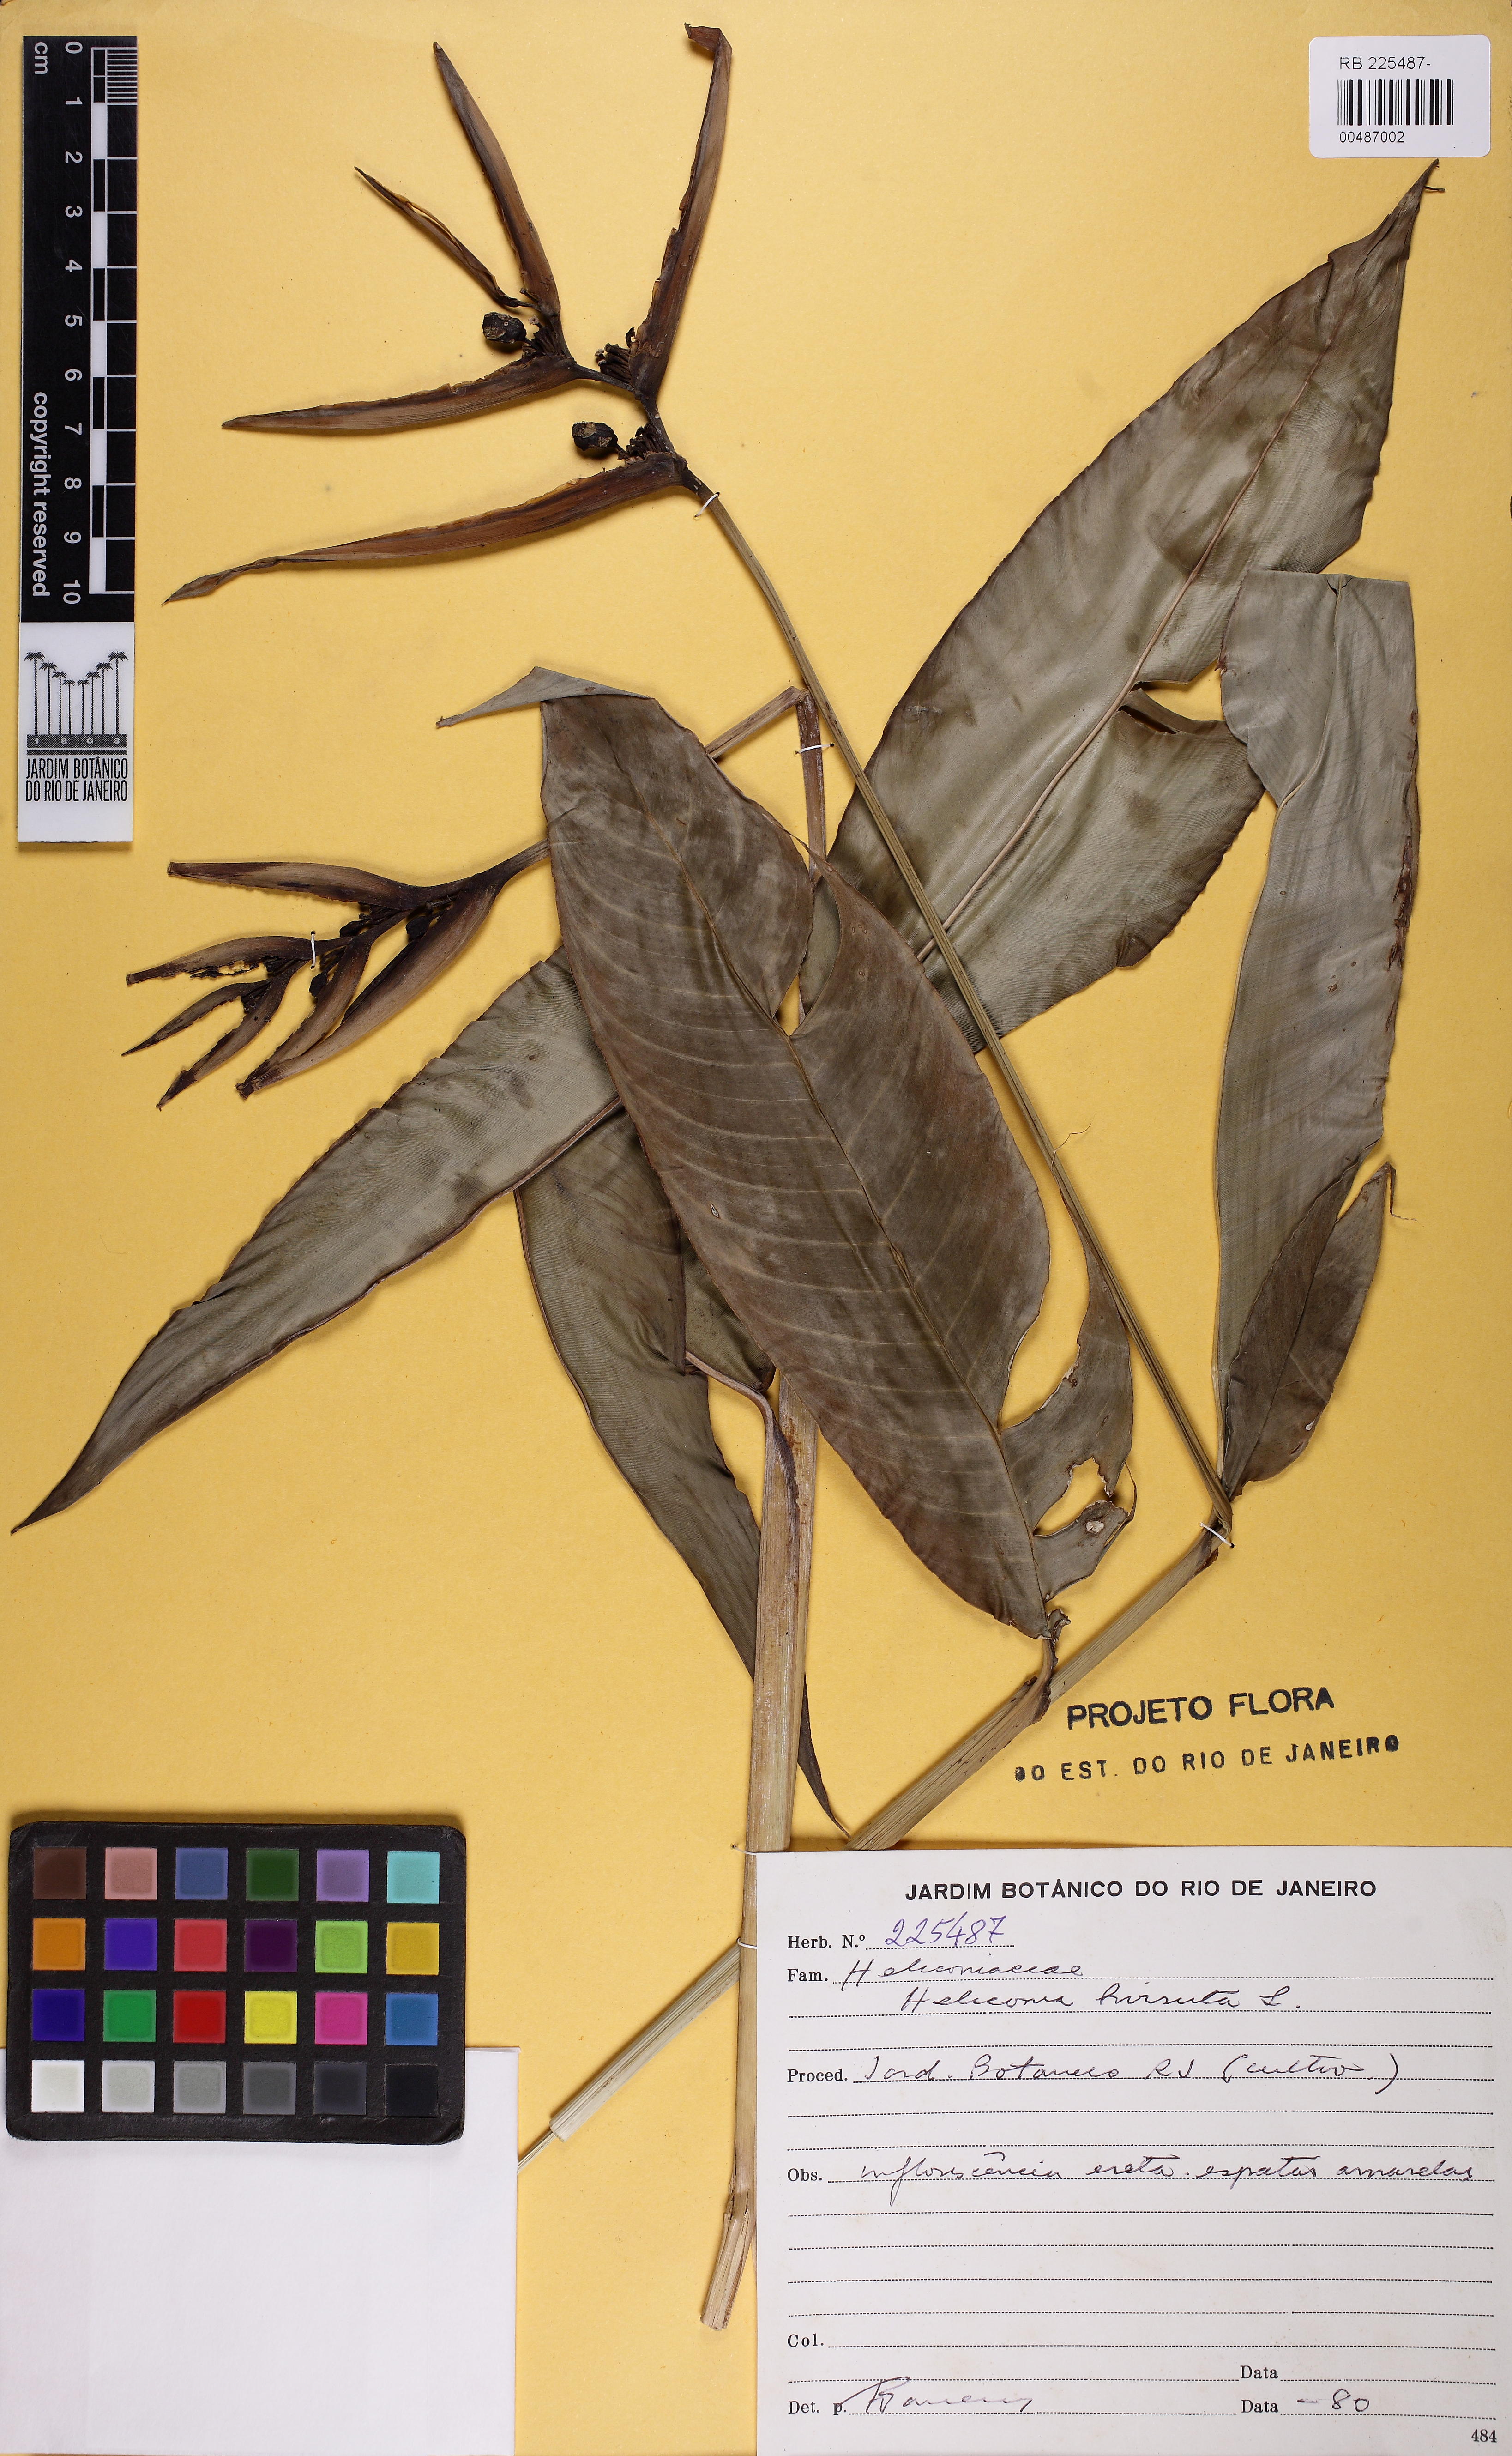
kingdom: Plantae
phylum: Tracheophyta
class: Liliopsida
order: Zingiberales
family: Heliconiaceae
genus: Heliconia
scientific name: Heliconia hirsuta
